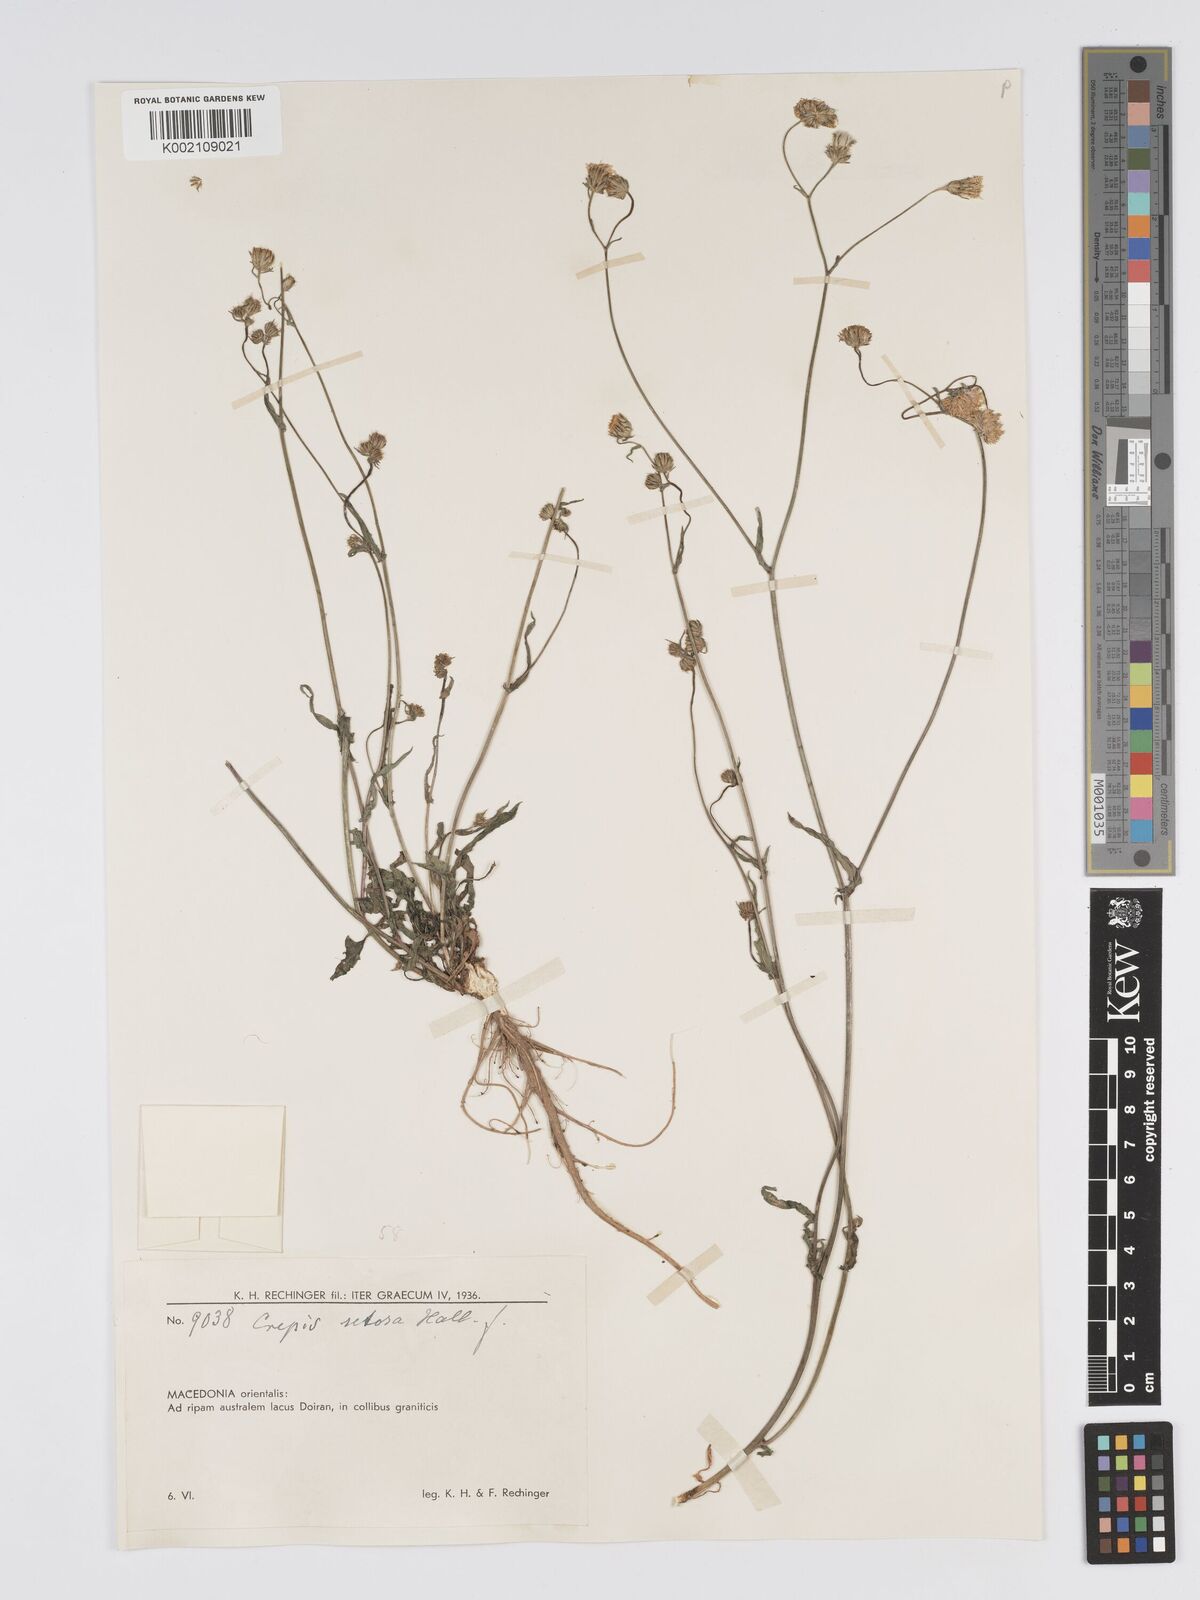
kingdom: Plantae
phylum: Tracheophyta
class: Magnoliopsida
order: Asterales
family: Asteraceae
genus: Crepis
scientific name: Crepis setosa
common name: Bristly hawk's-beard
